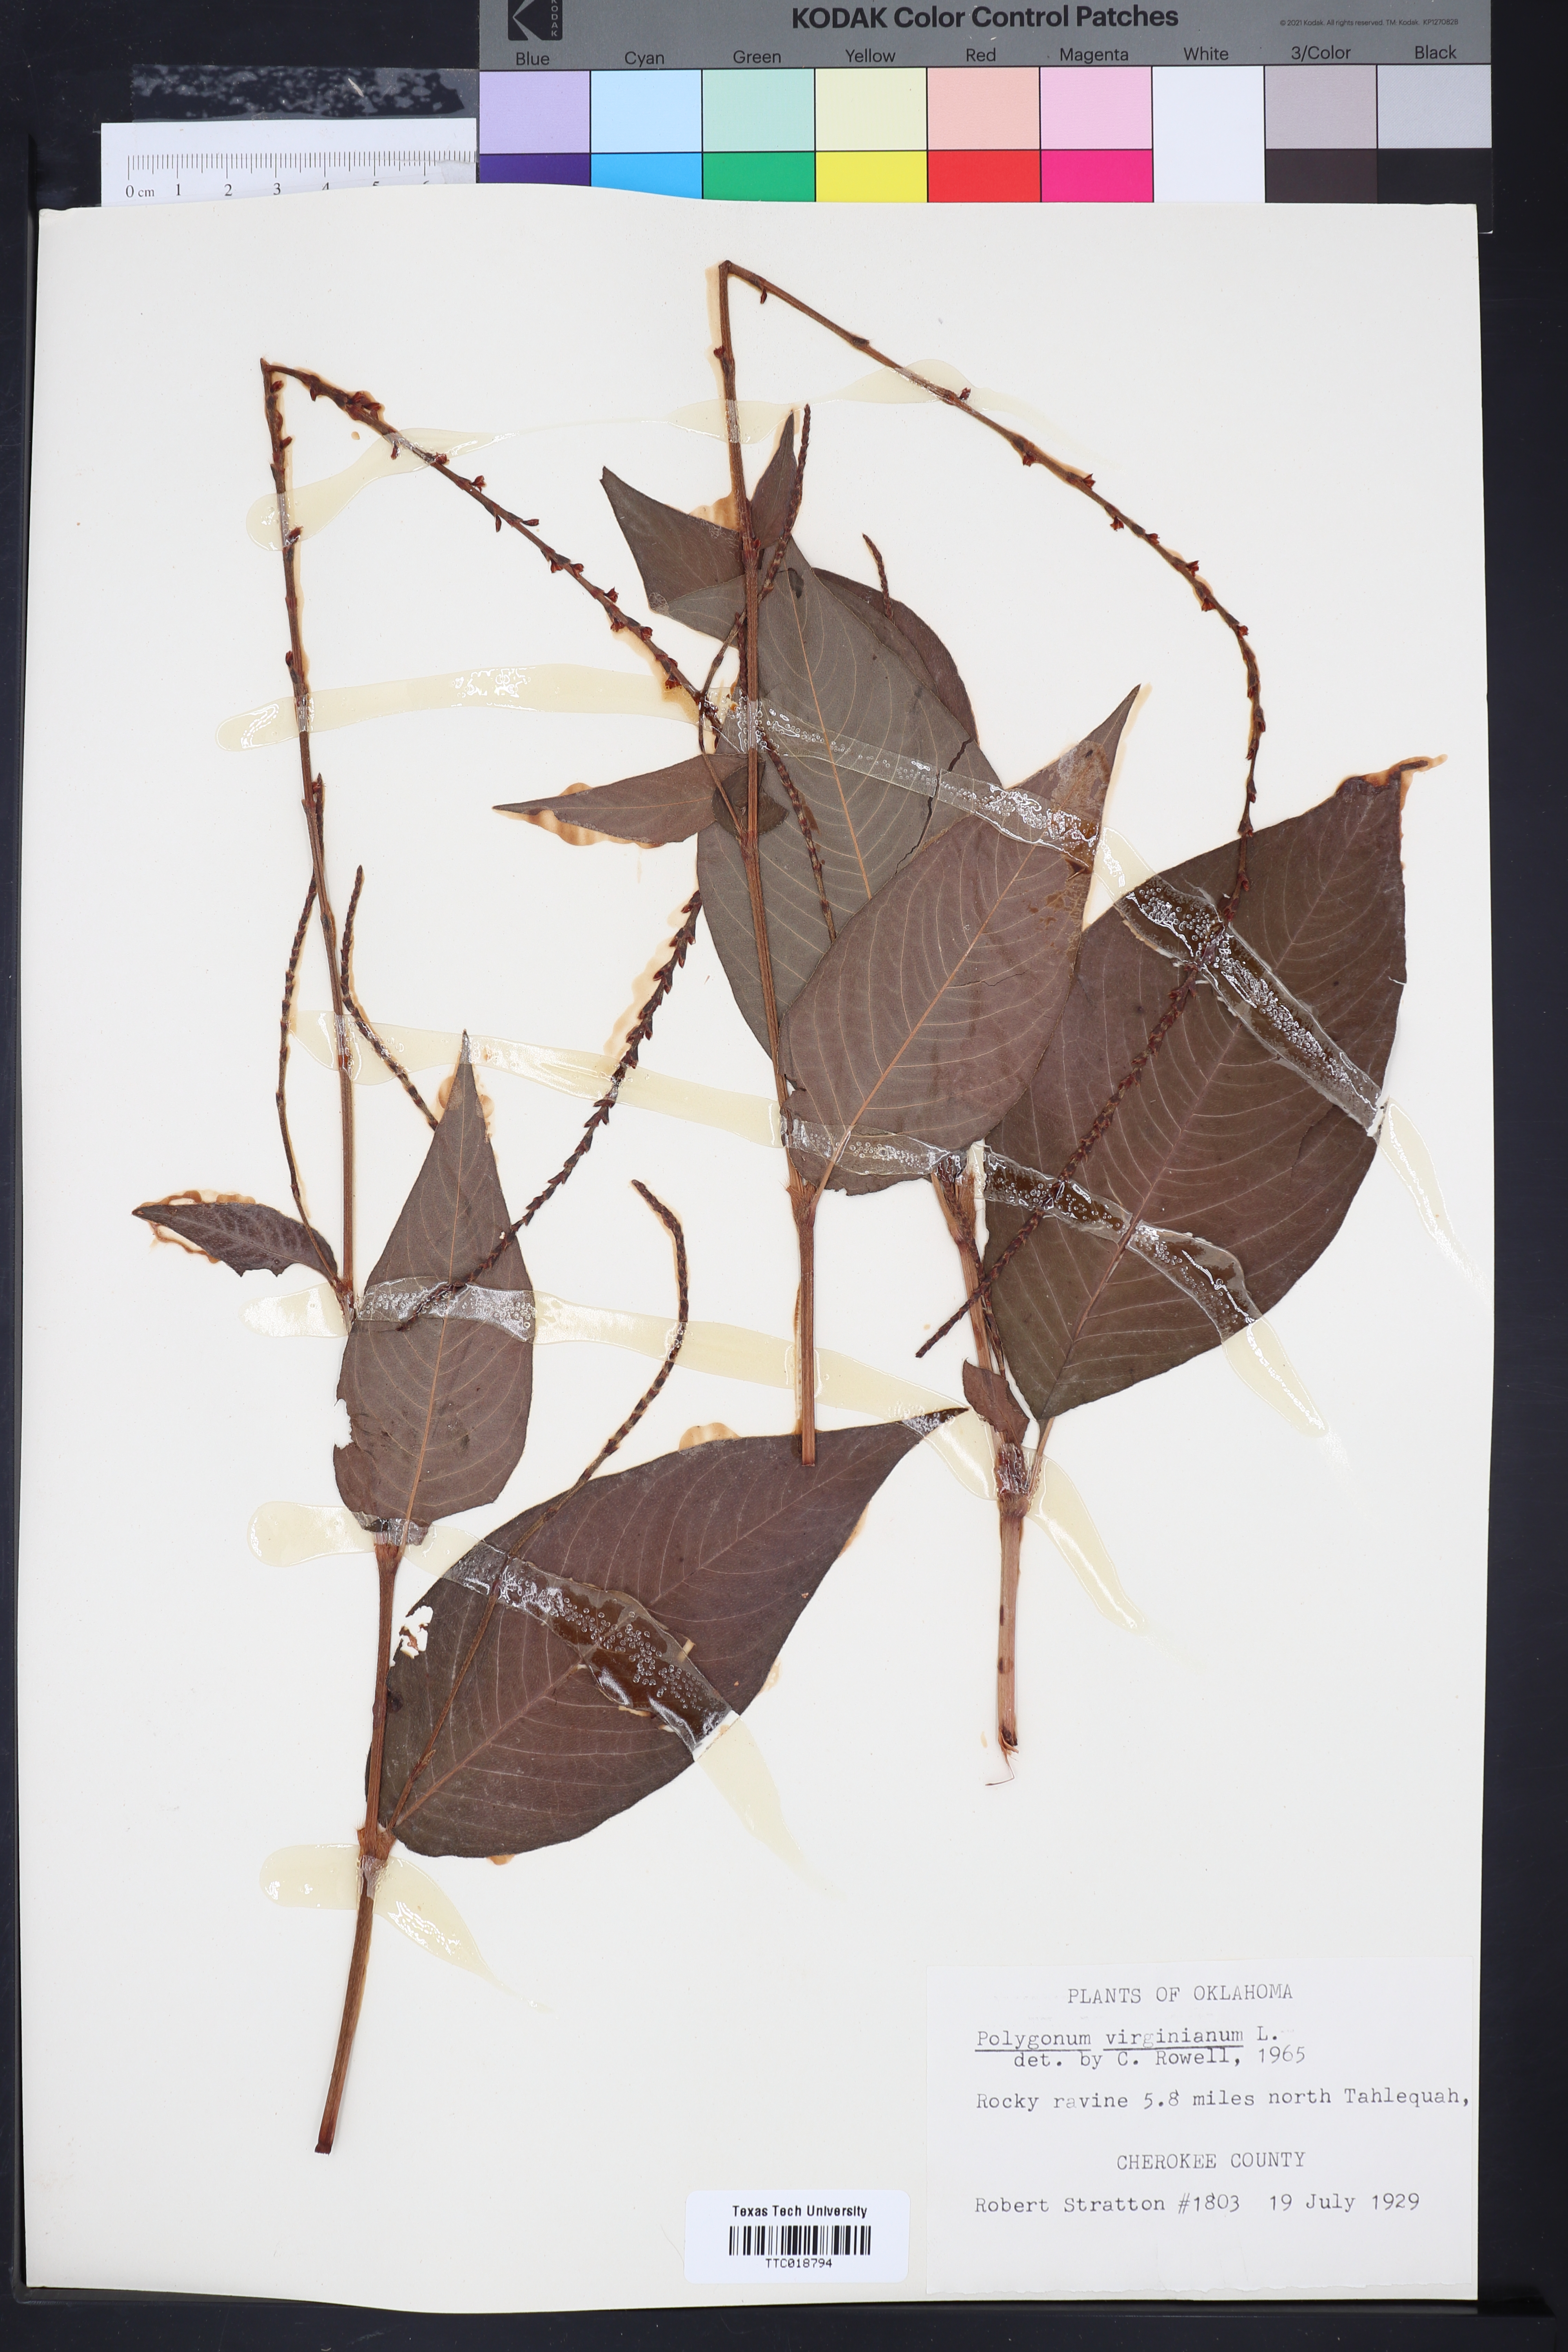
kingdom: Plantae
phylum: Tracheophyta
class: Magnoliopsida
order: Caryophyllales
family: Polygonaceae
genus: Persicaria
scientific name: Persicaria virginiana
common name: Jumpseed
